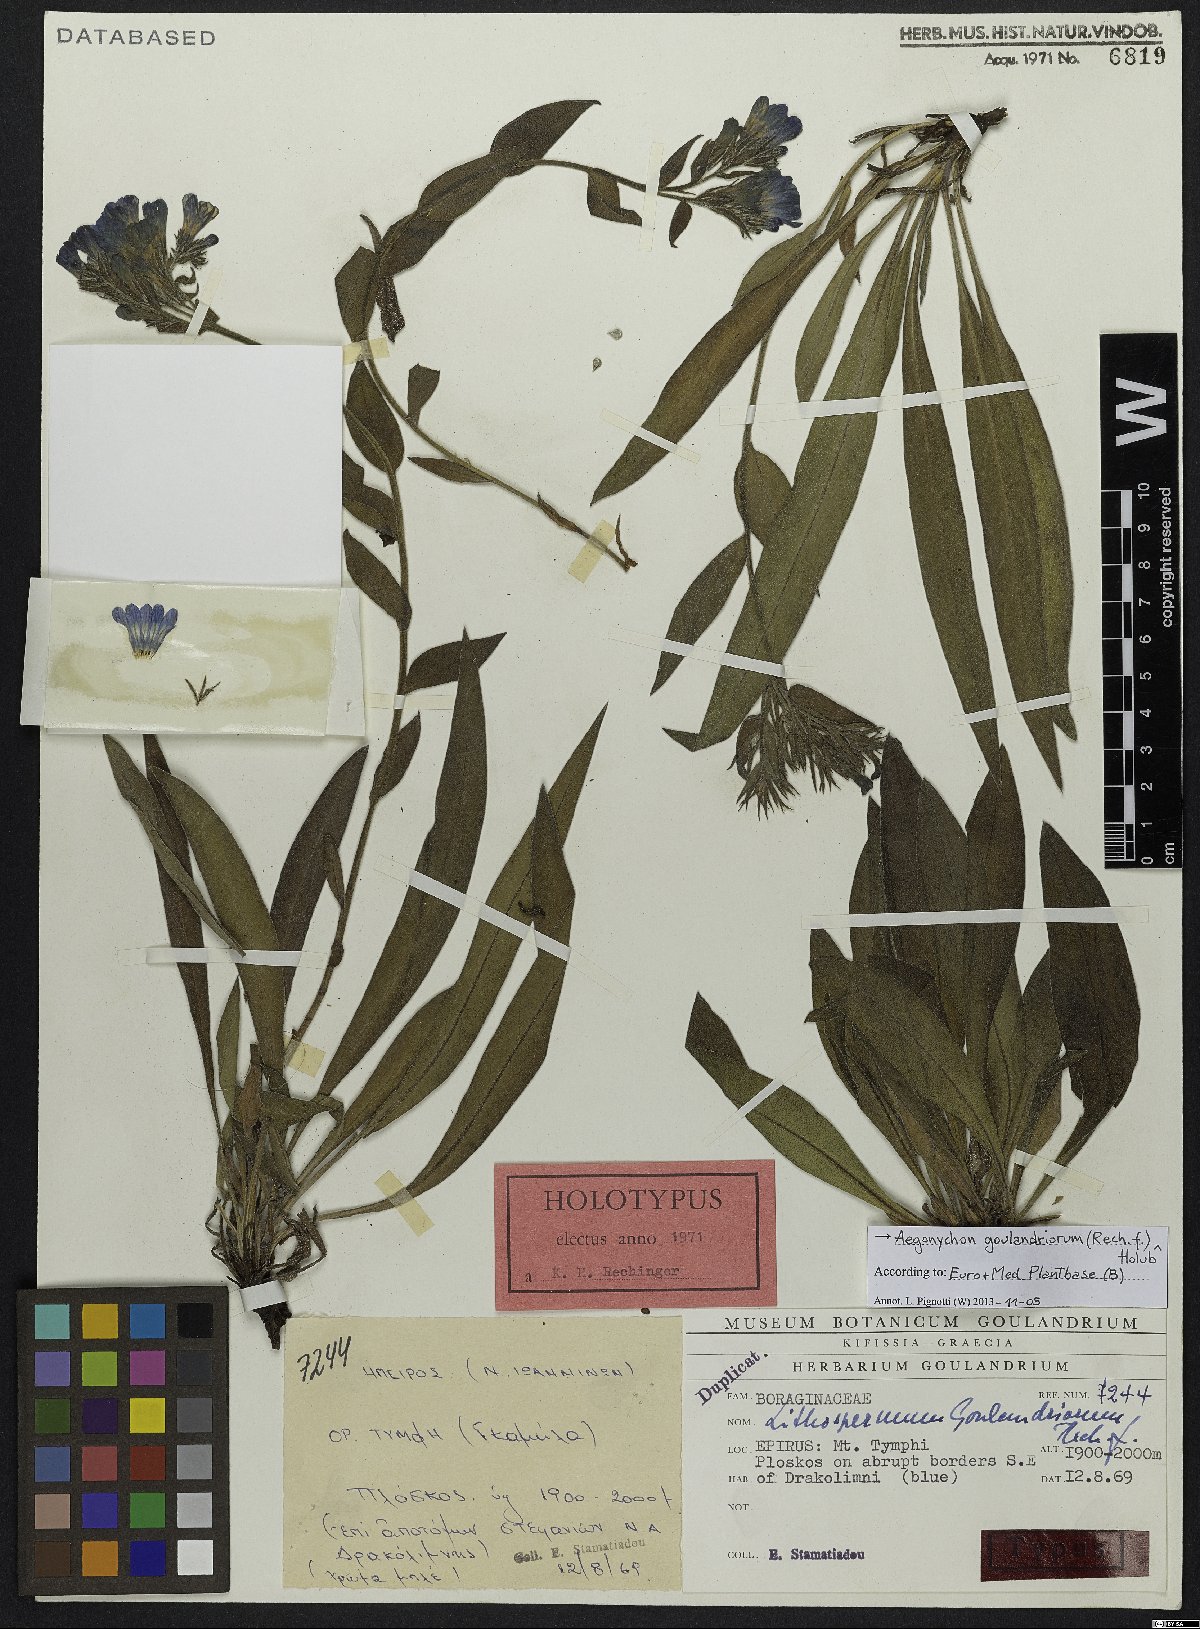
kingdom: Plantae
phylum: Tracheophyta
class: Magnoliopsida
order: Boraginales
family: Boraginaceae
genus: Glandora
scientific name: Glandora goulandriorum
